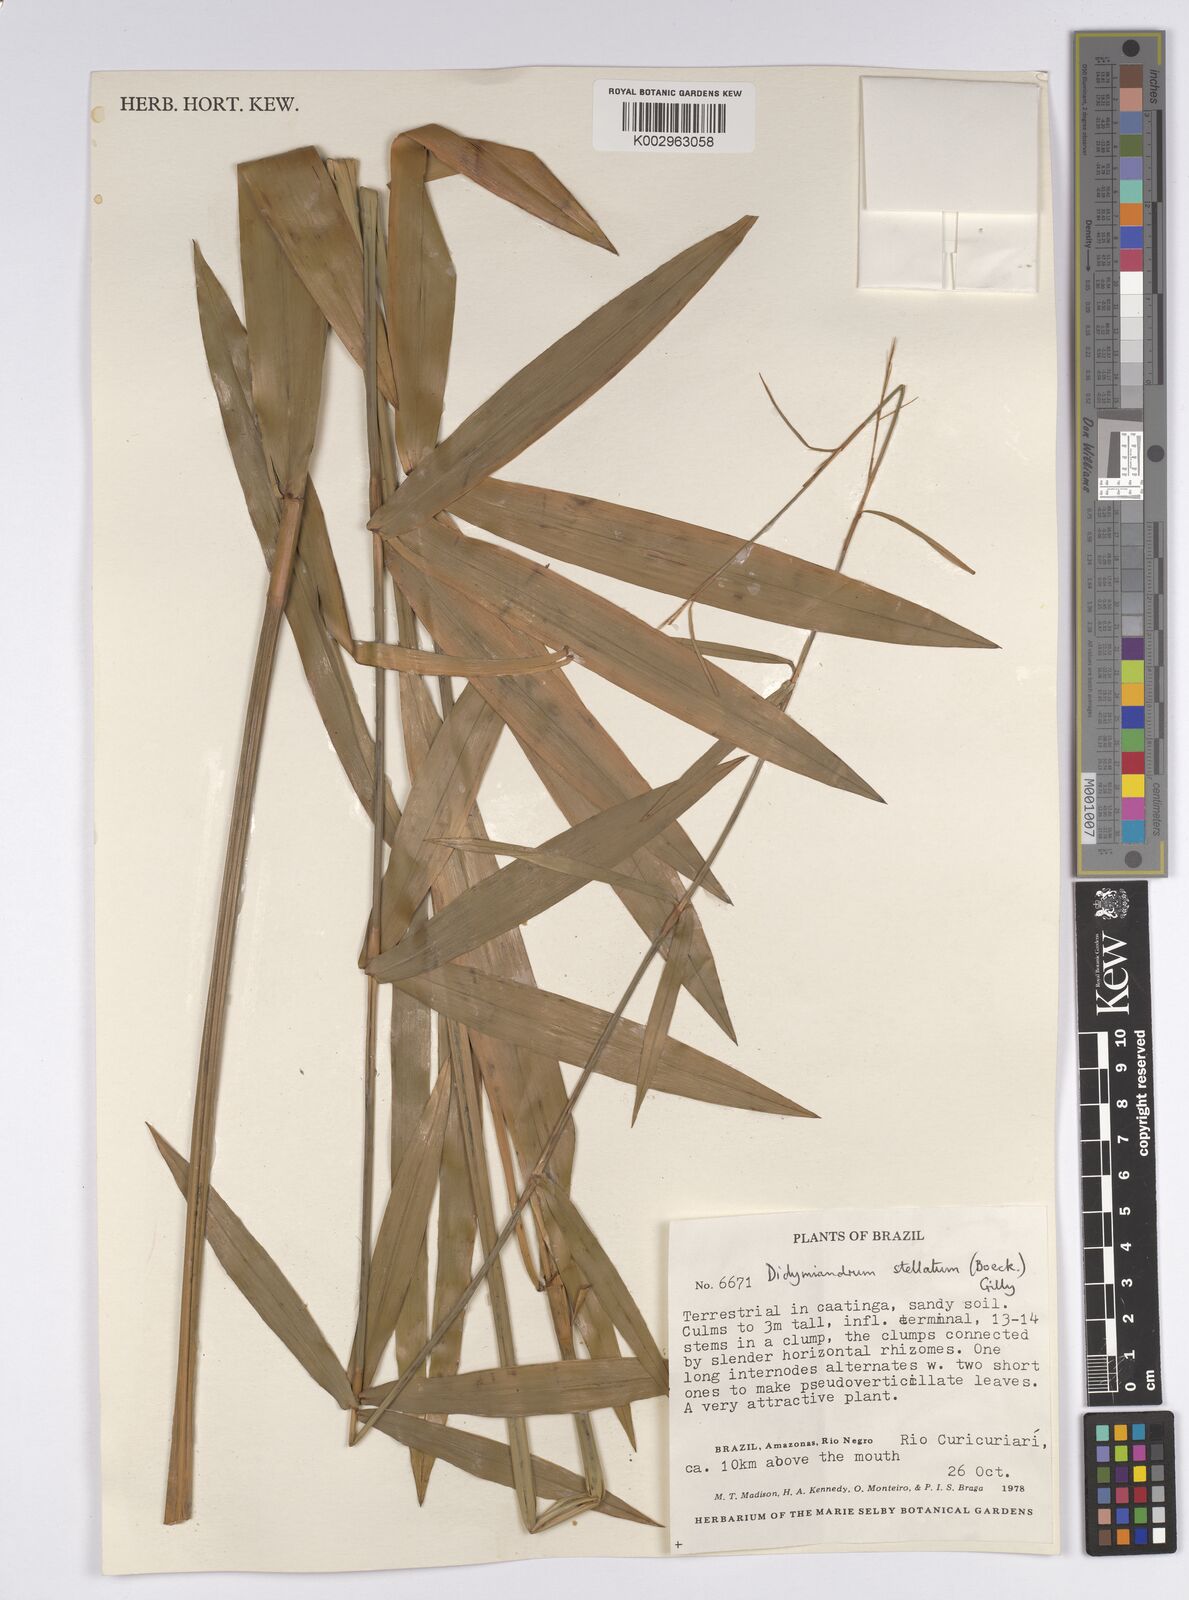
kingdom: Plantae
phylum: Tracheophyta
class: Liliopsida
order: Poales
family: Cyperaceae
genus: Didymiandrum
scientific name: Didymiandrum stellatum
